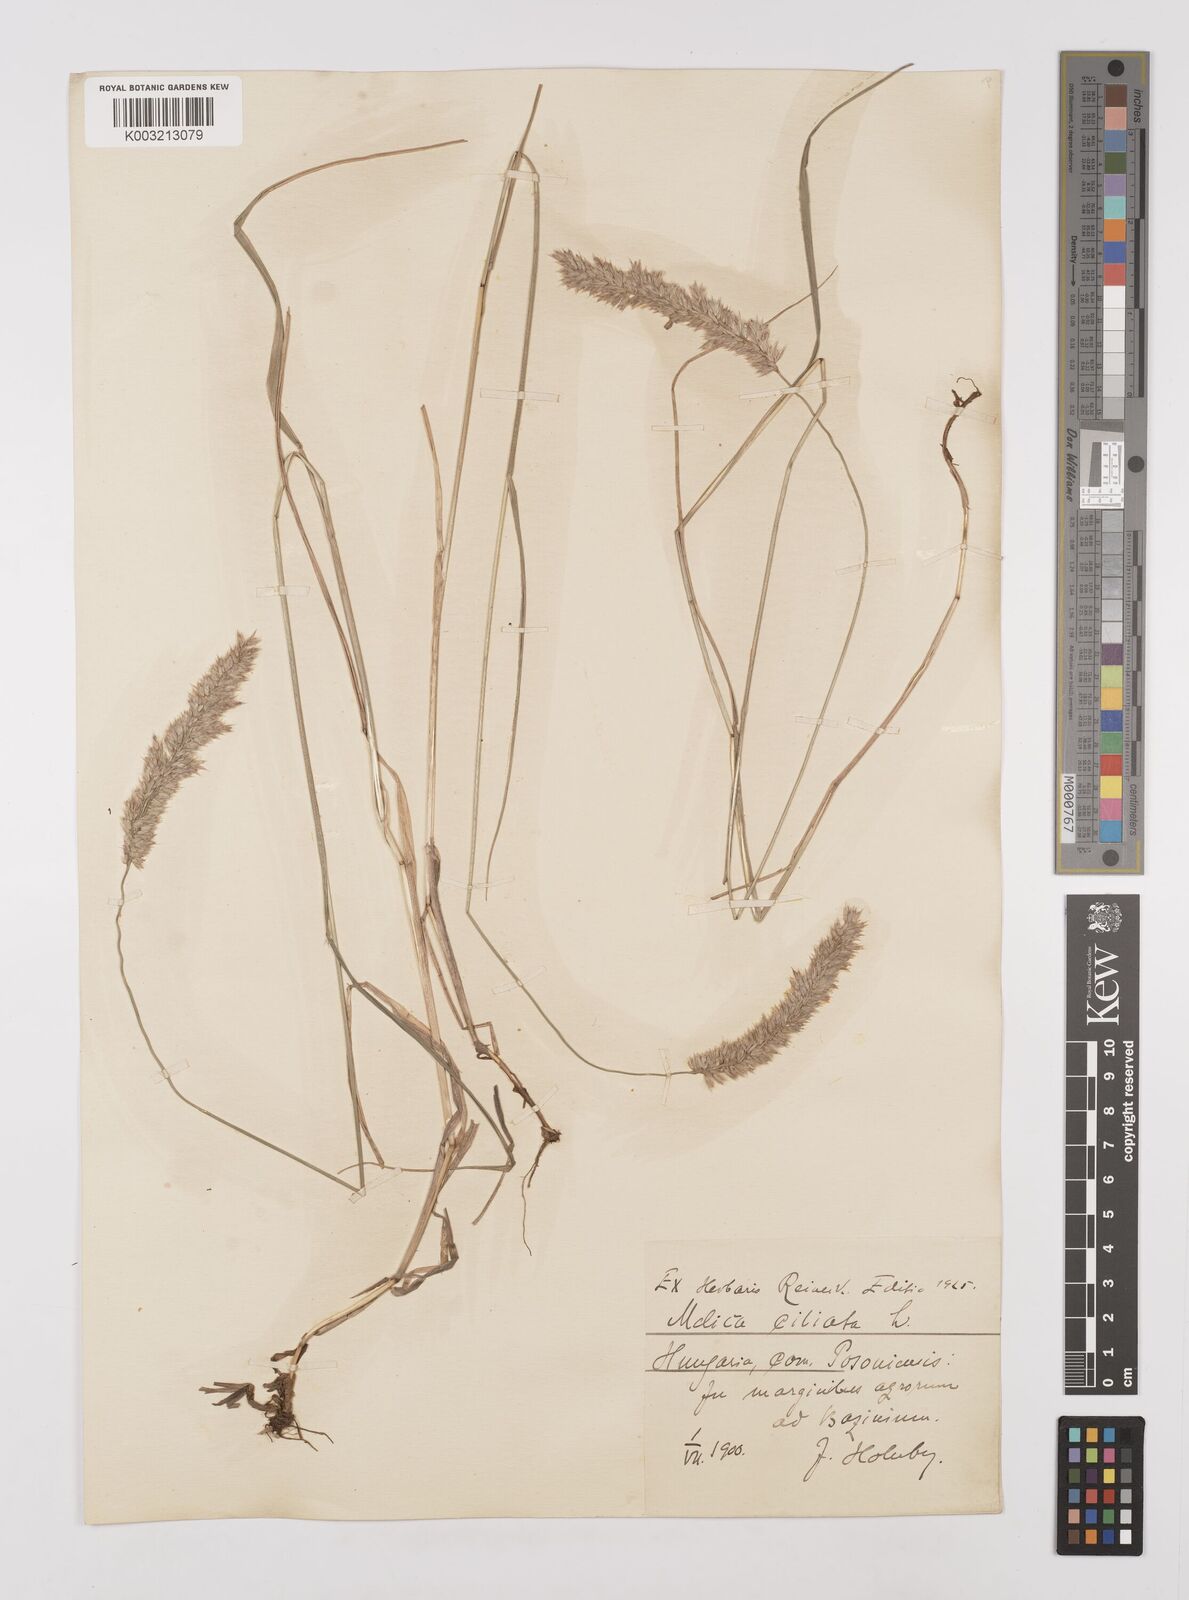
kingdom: Plantae
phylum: Tracheophyta
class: Liliopsida
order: Poales
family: Poaceae
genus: Melica
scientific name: Melica ciliata
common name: Hairy melicgrass
